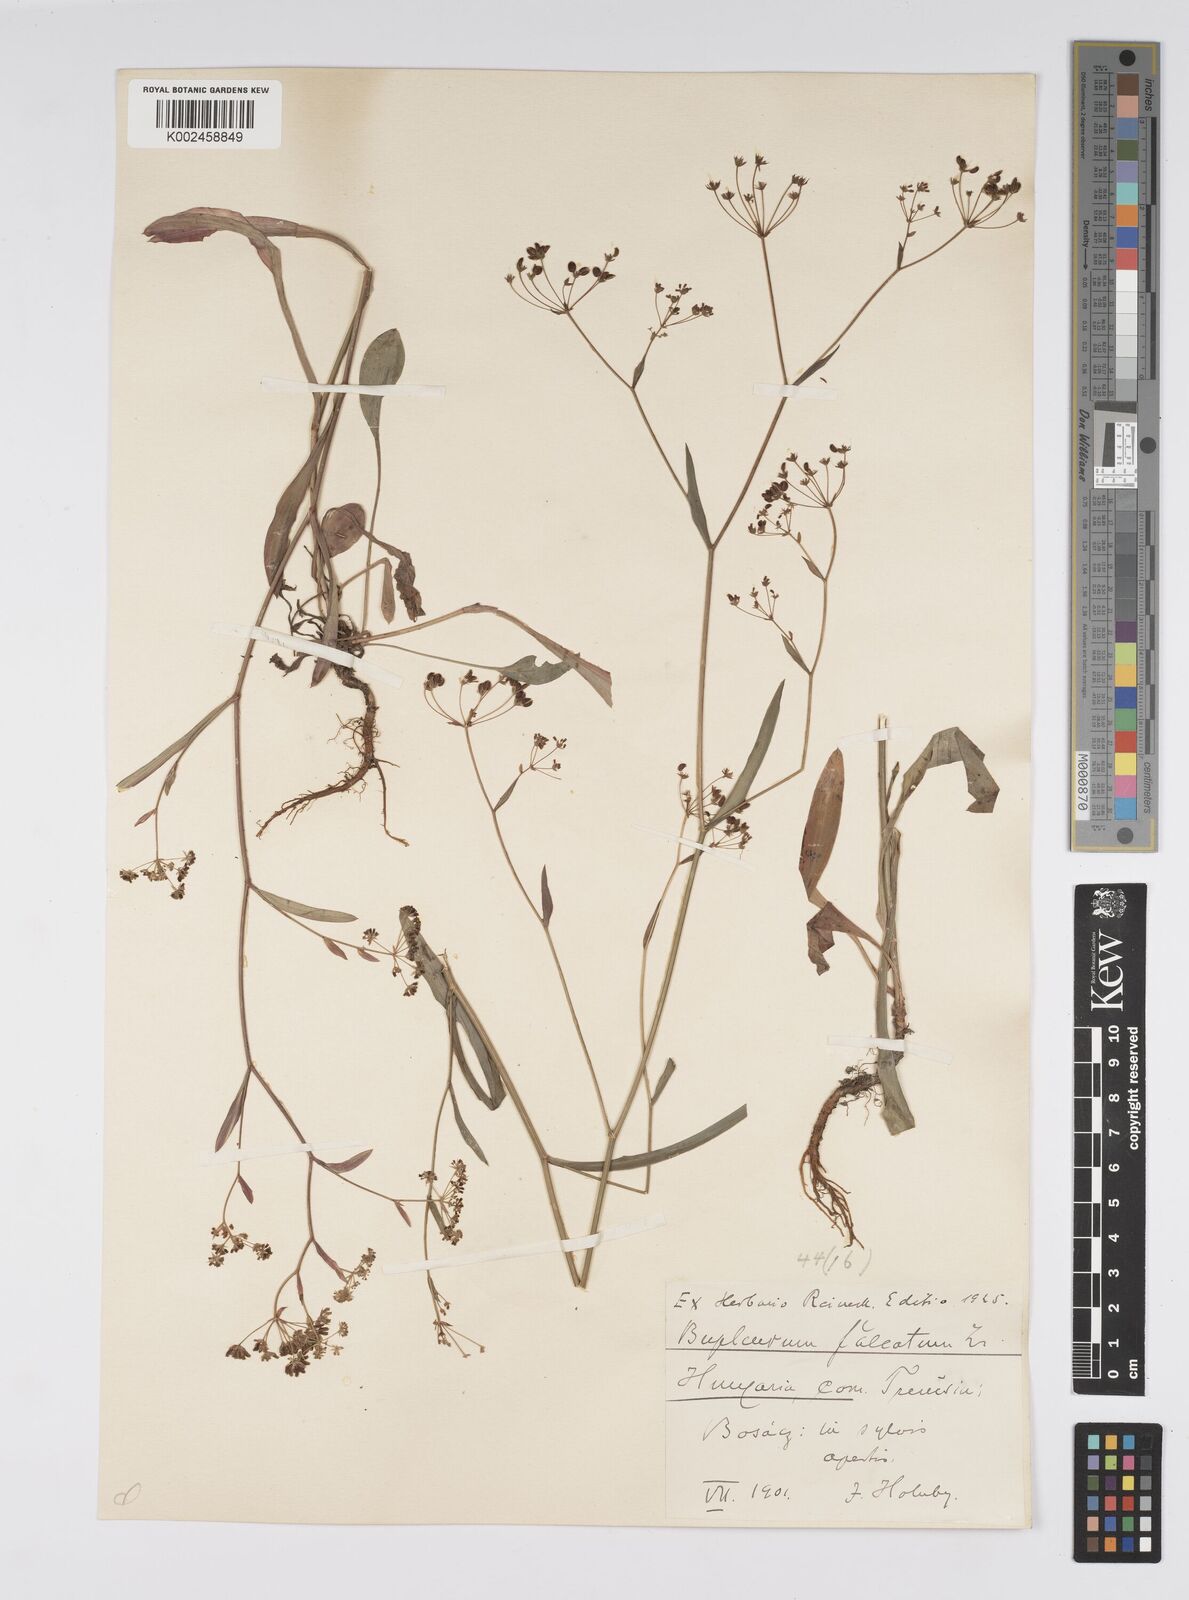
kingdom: Plantae
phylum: Tracheophyta
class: Magnoliopsida
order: Apiales
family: Apiaceae
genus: Bupleurum
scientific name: Bupleurum falcatum
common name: Sickle-leaved hare's-ear
